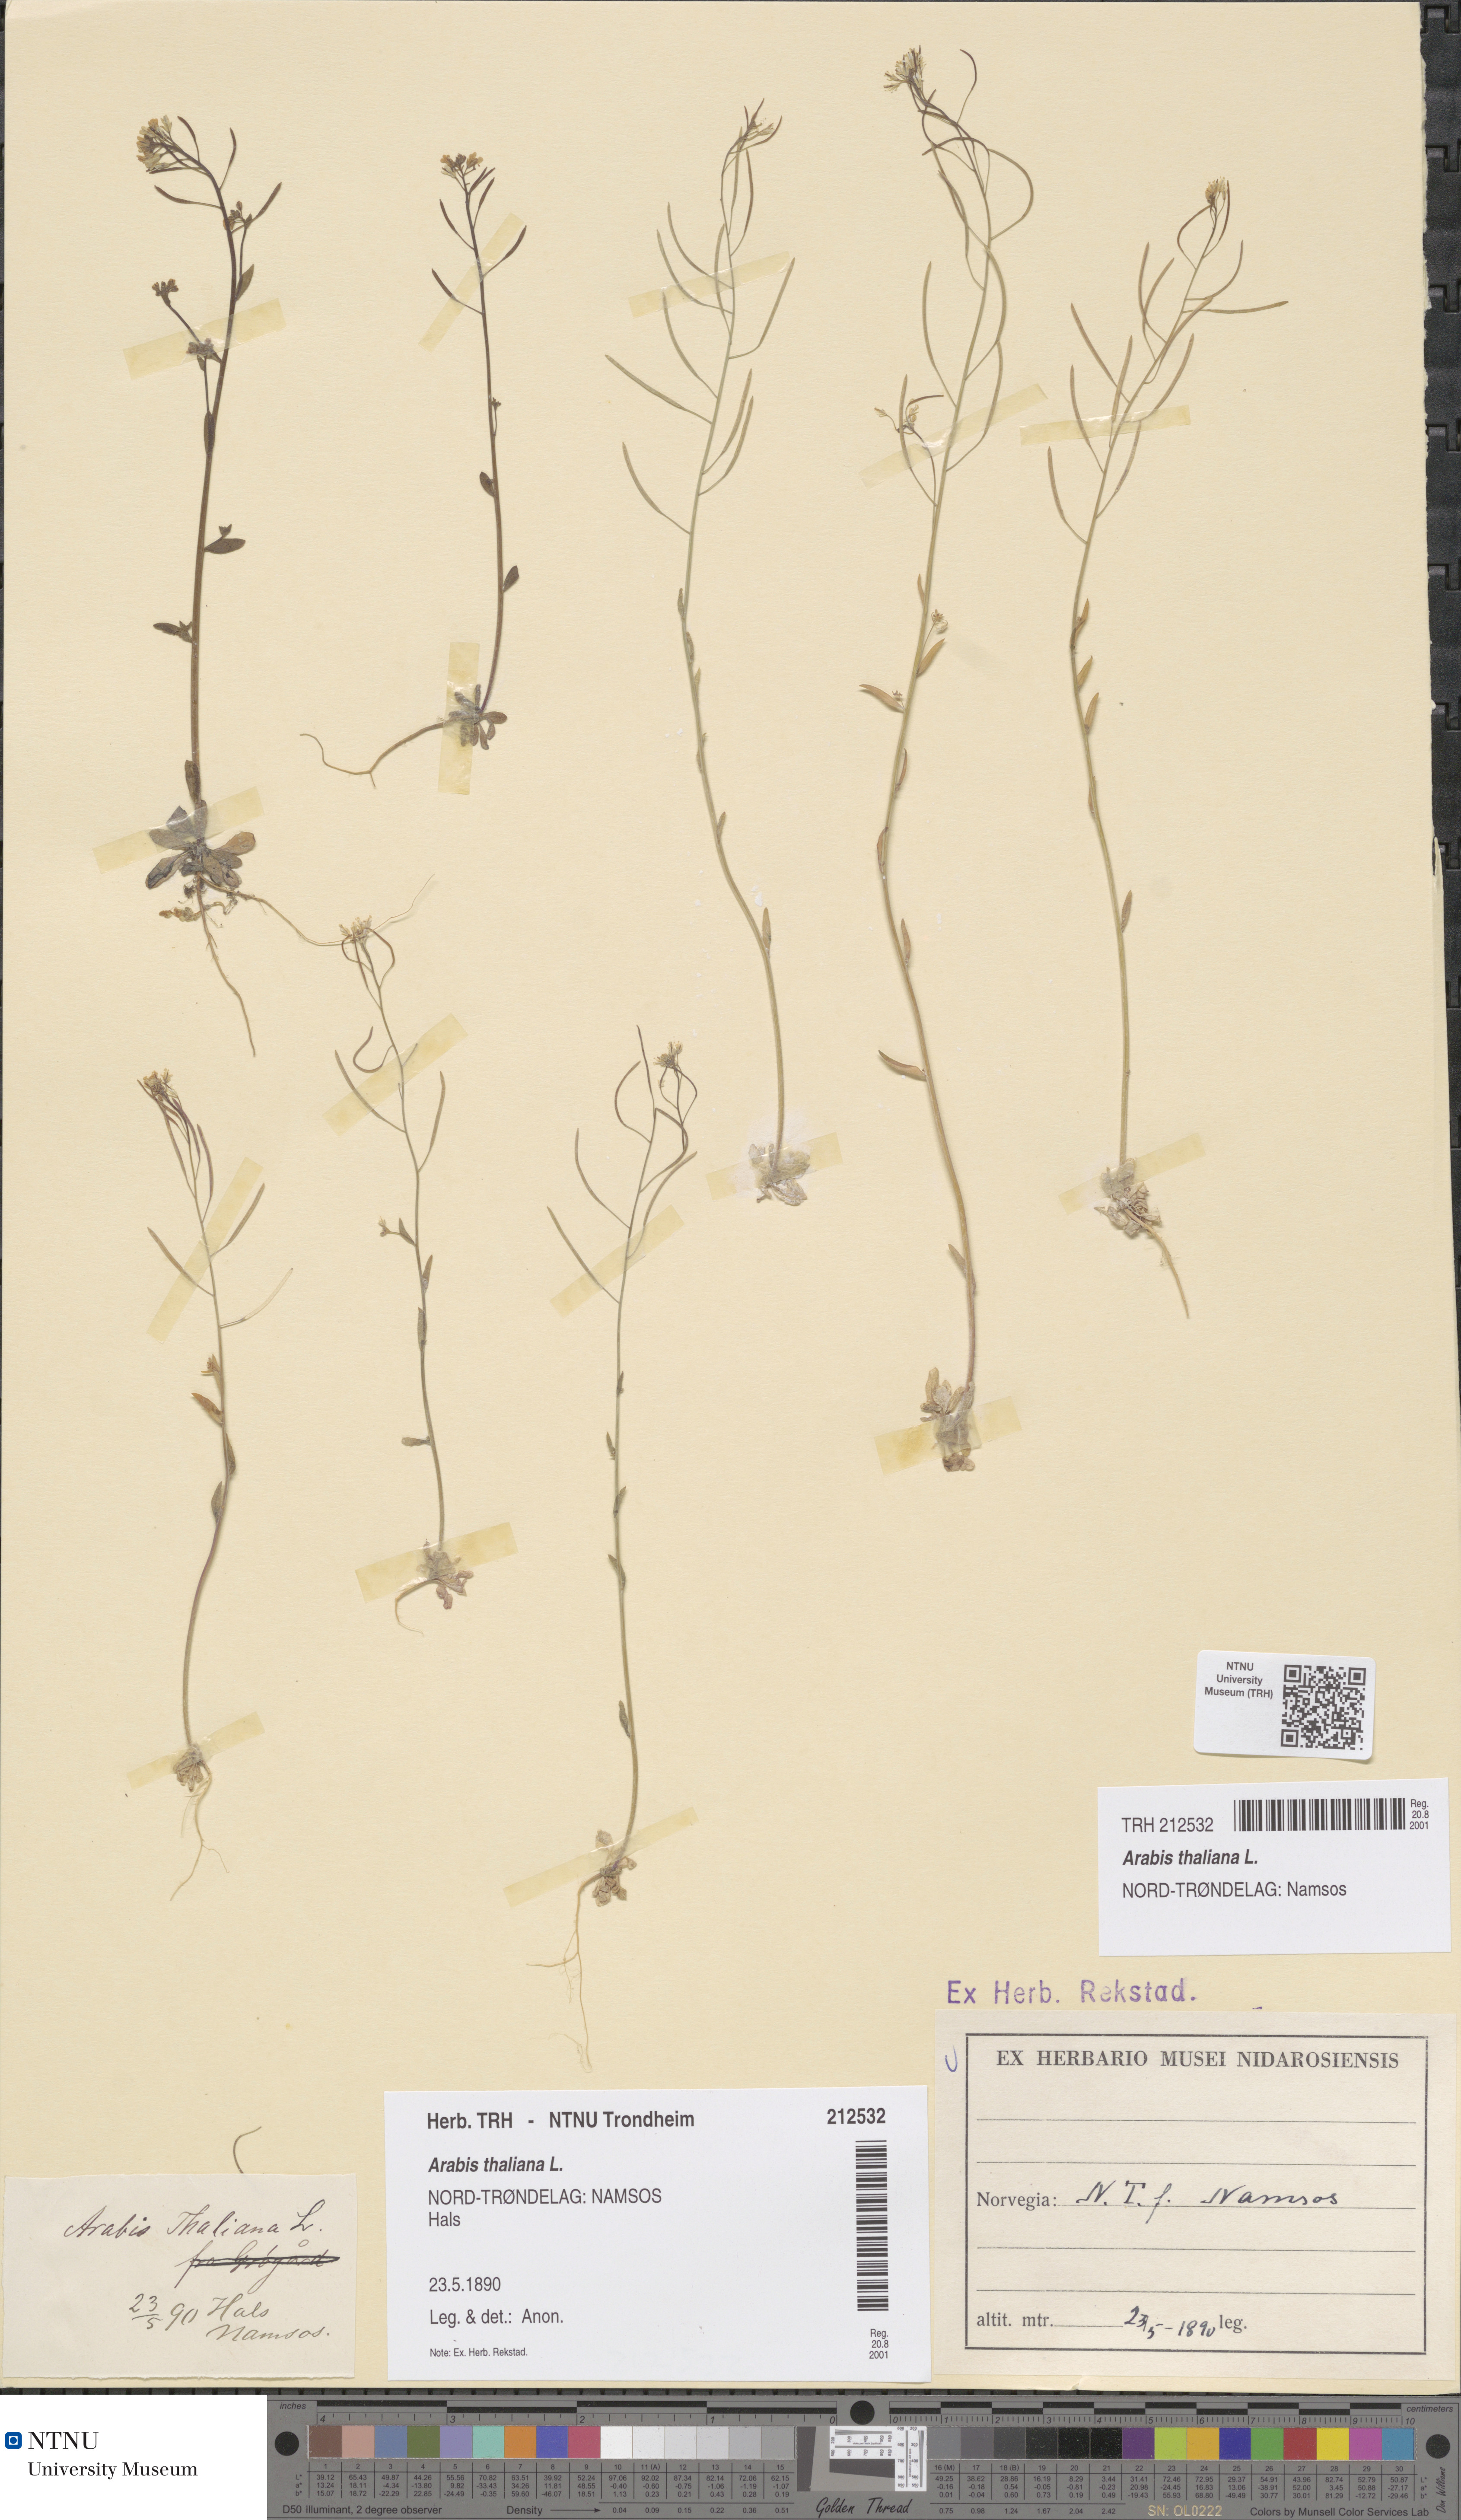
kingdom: Plantae
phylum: Tracheophyta
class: Magnoliopsida
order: Brassicales
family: Brassicaceae
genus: Arabidopsis
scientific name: Arabidopsis thaliana
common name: Thale cress
